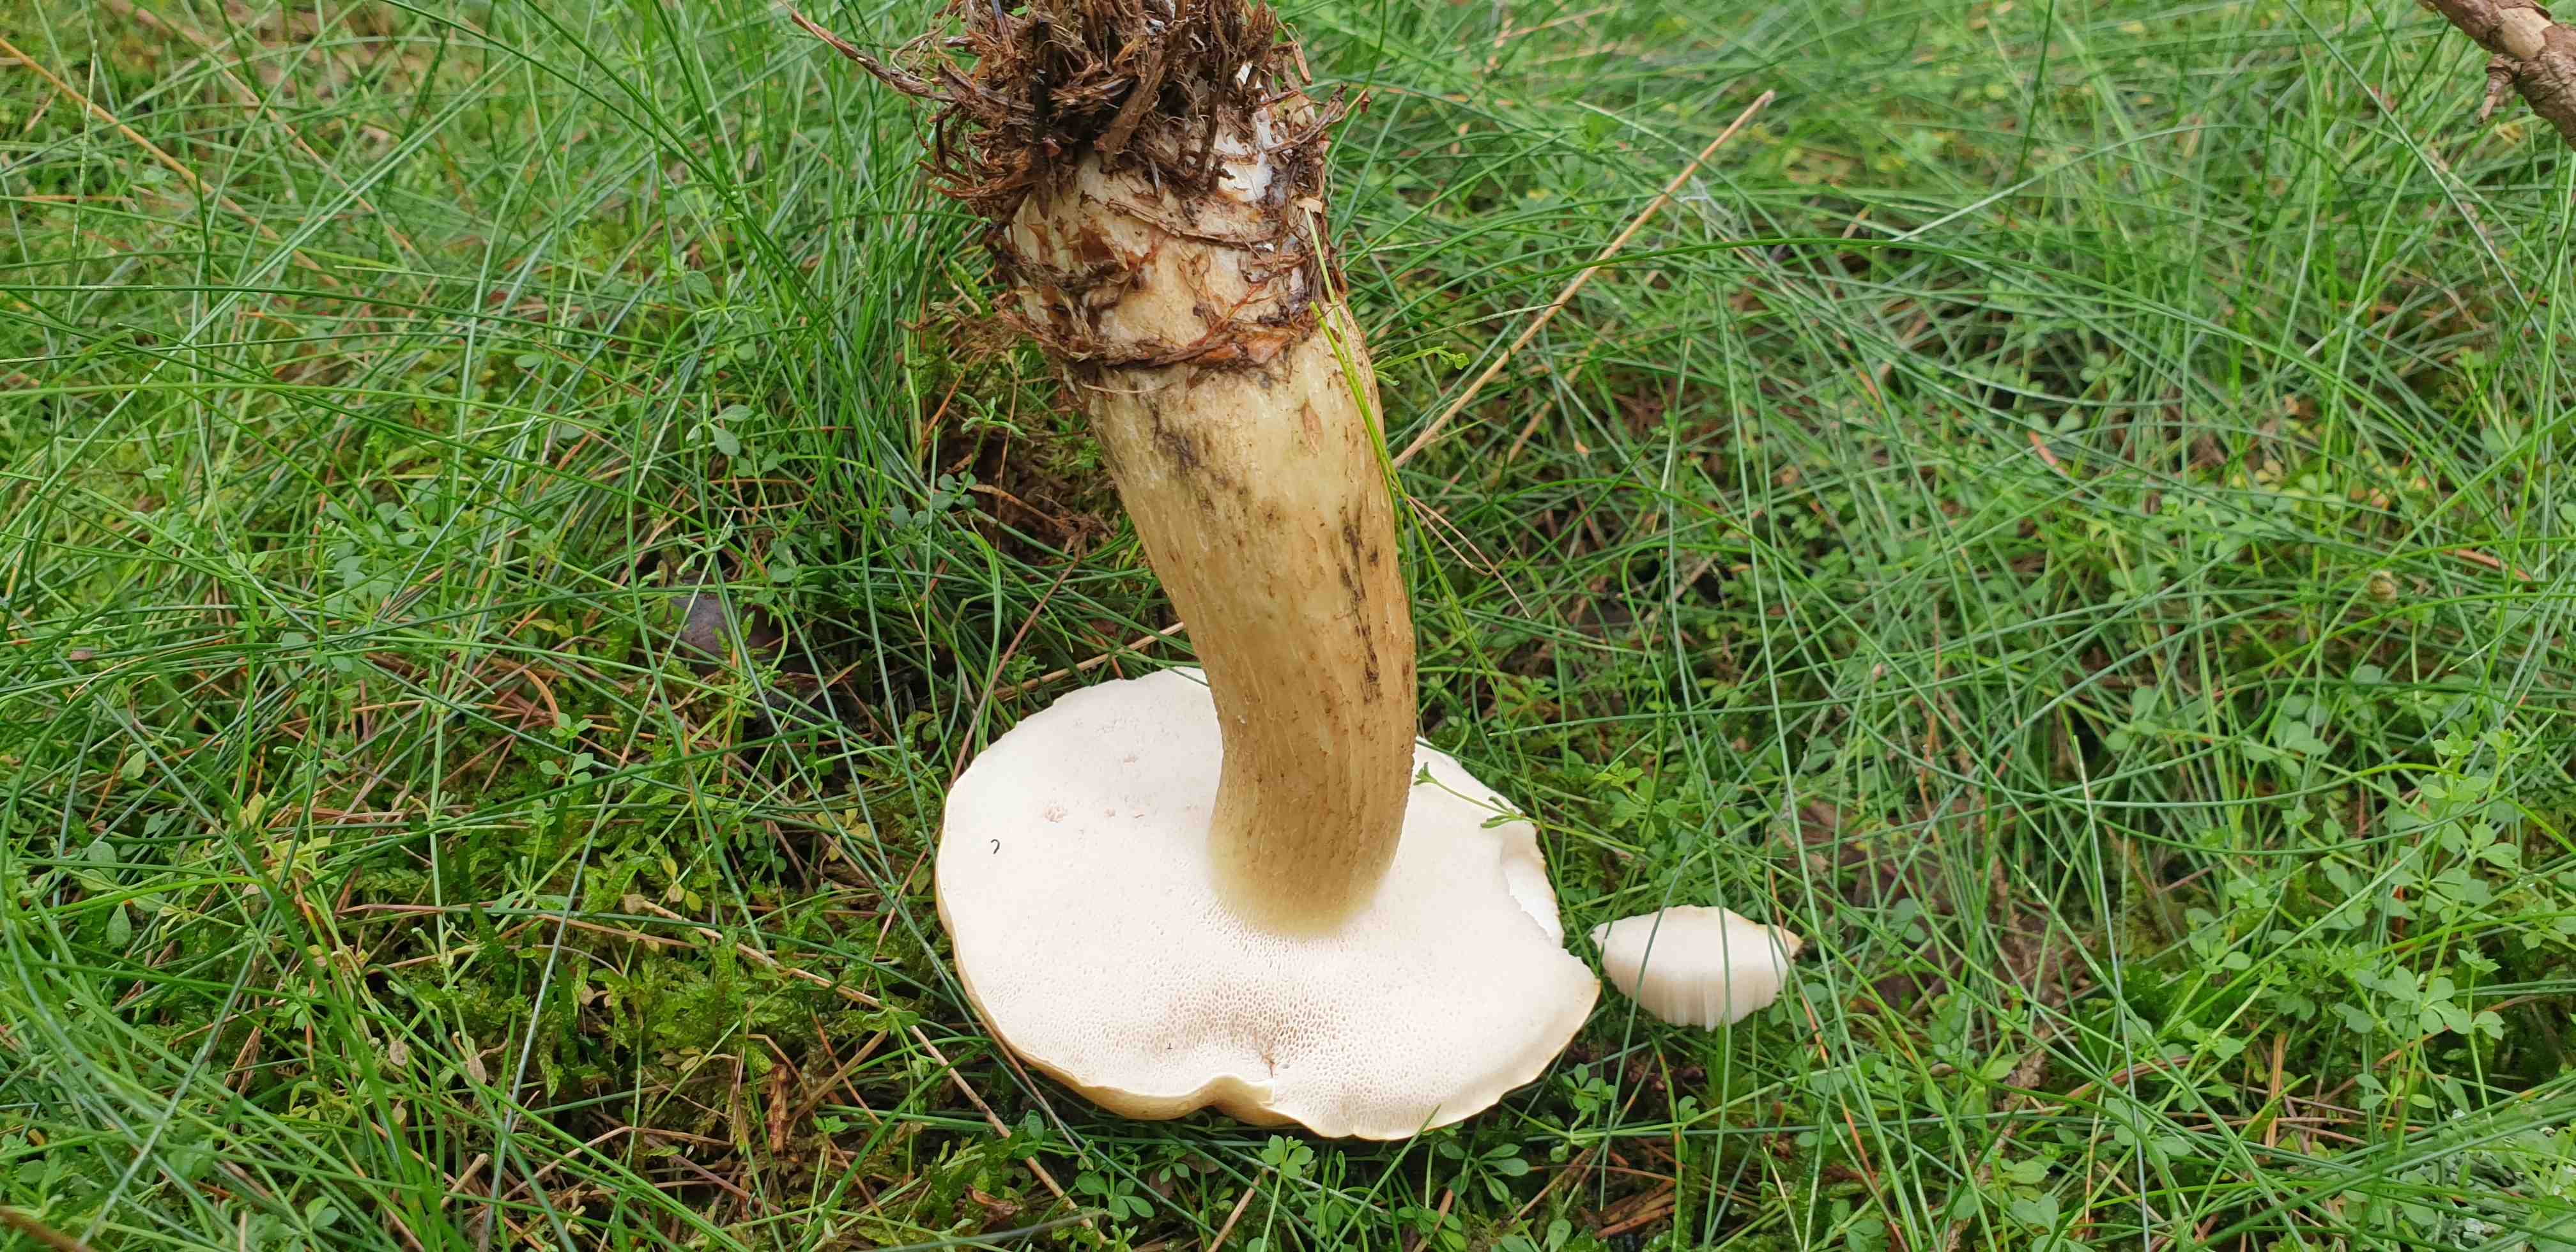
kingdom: Fungi
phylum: Basidiomycota
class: Agaricomycetes
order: Boletales
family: Boletaceae
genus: Tylopilus
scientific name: Tylopilus felleus
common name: galderørhat
